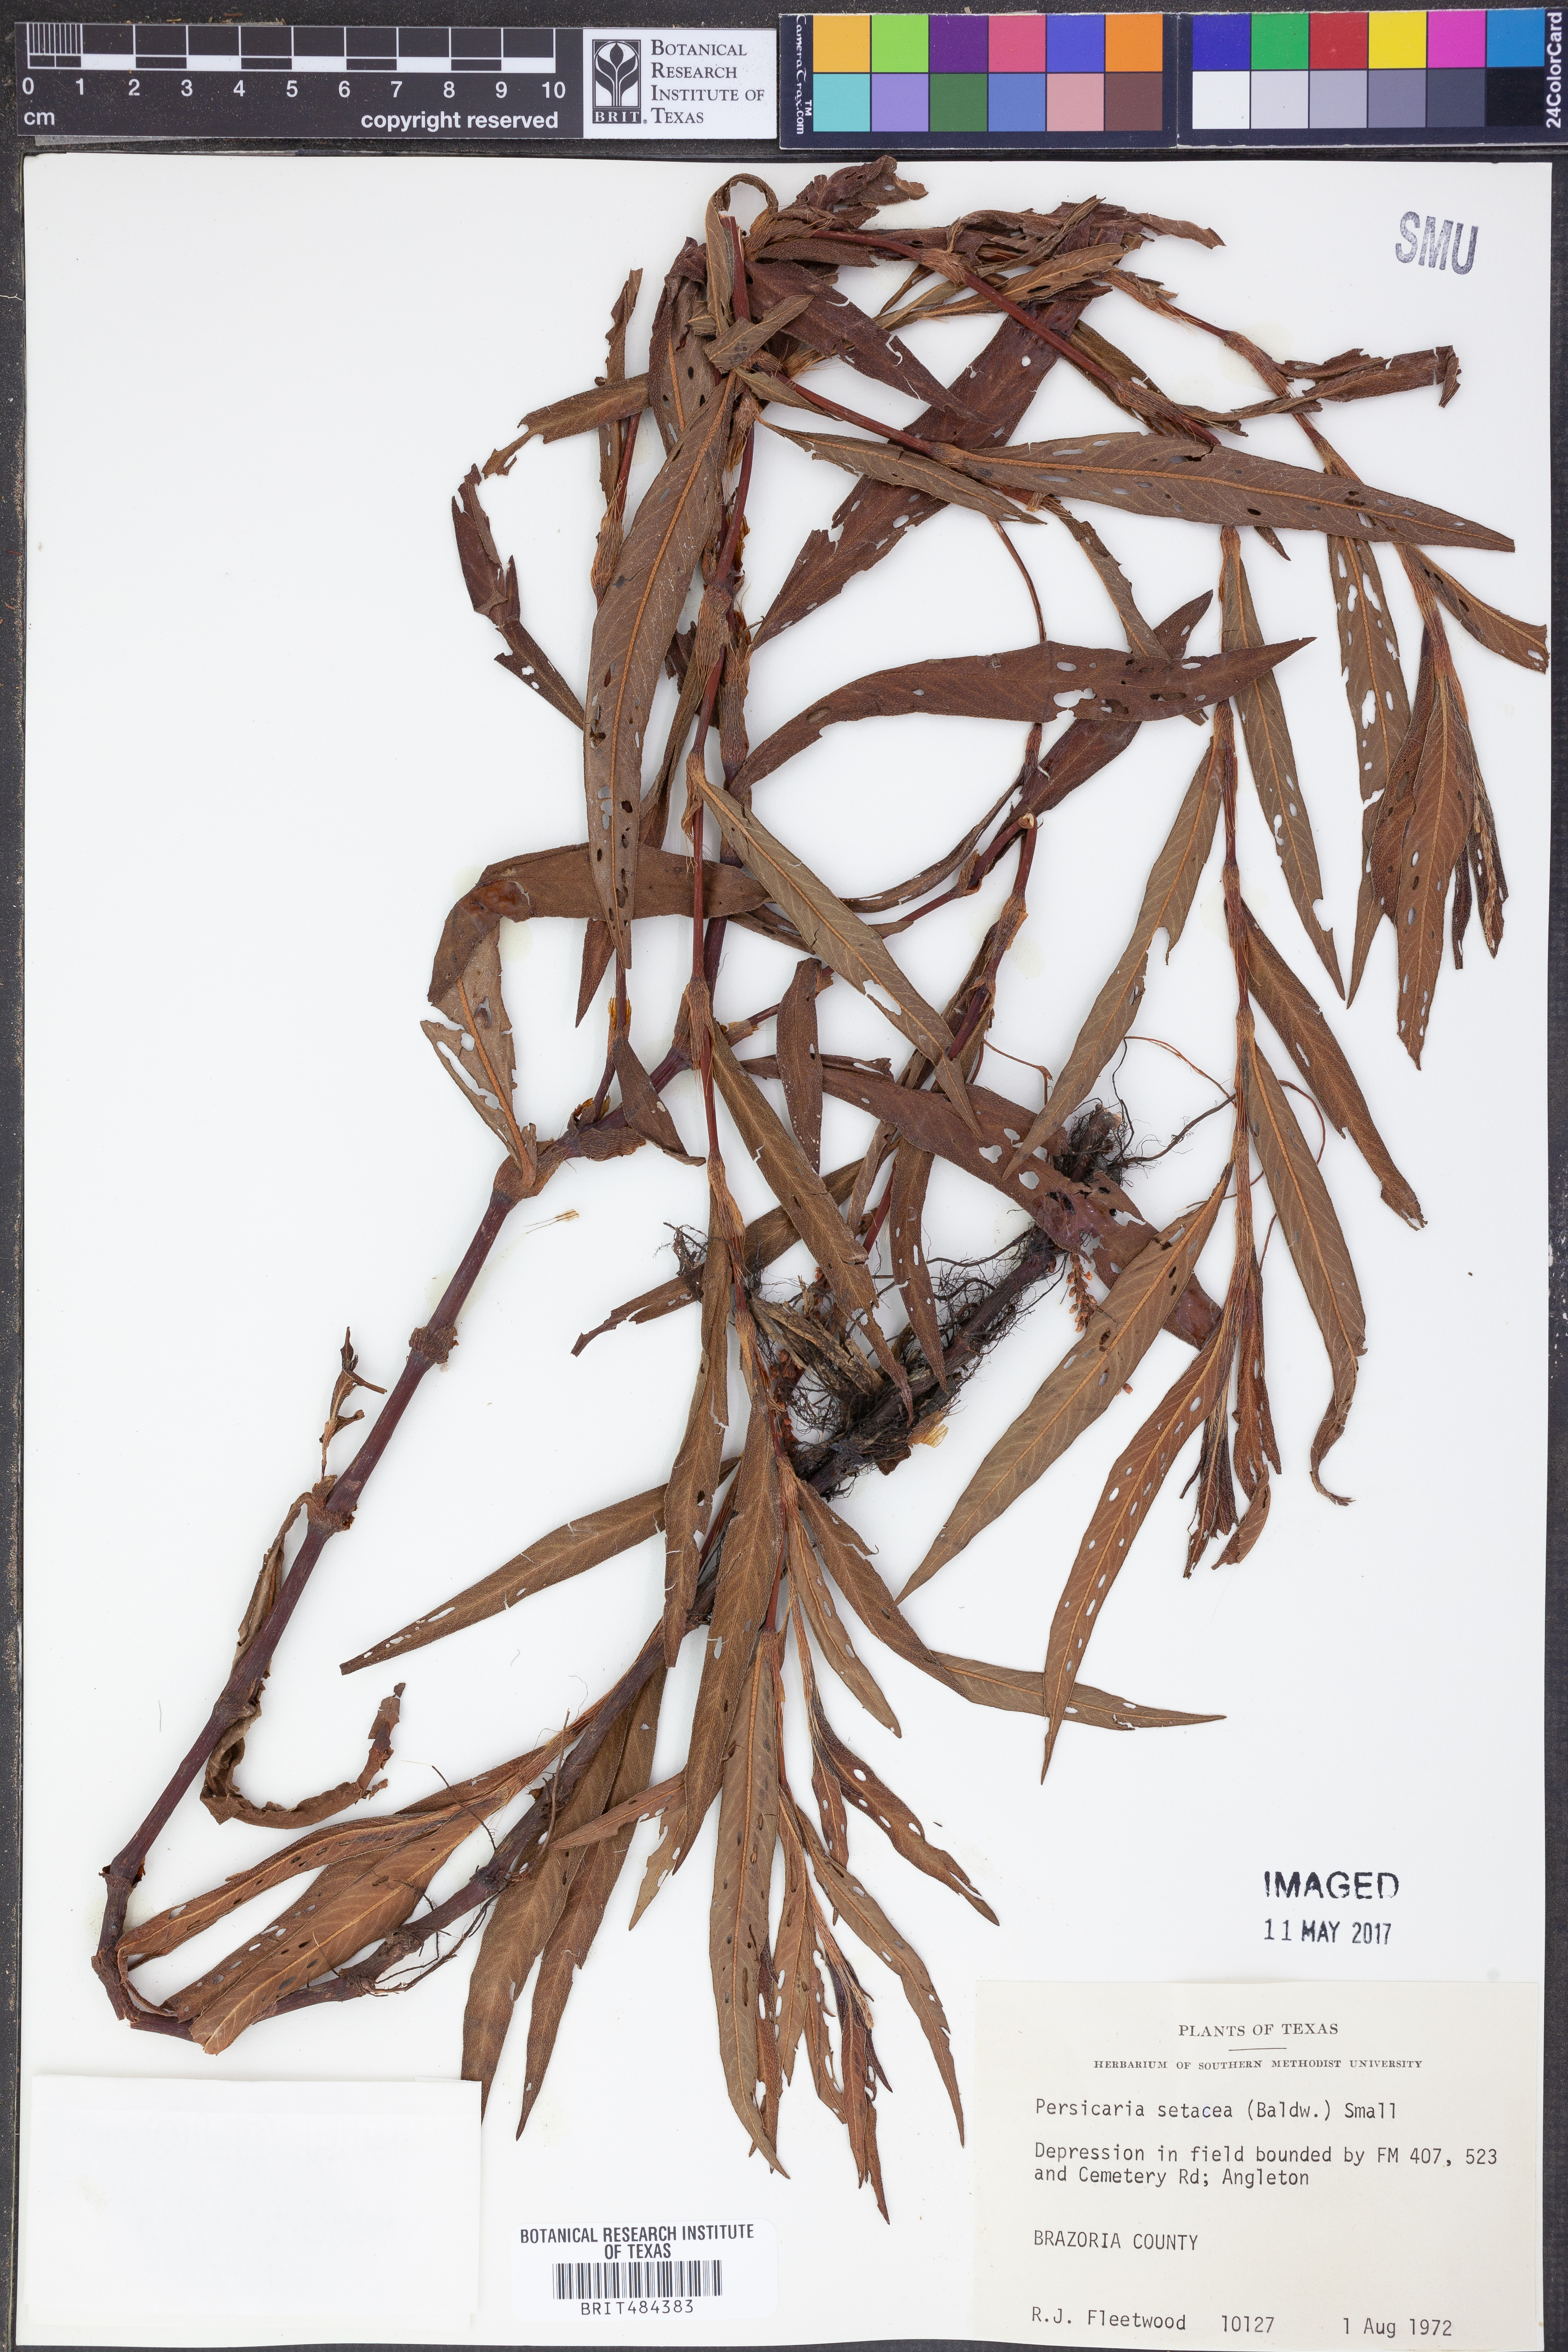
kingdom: Plantae
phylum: Tracheophyta
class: Magnoliopsida
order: Caryophyllales
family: Polygonaceae
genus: Persicaria
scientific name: Persicaria setacea
